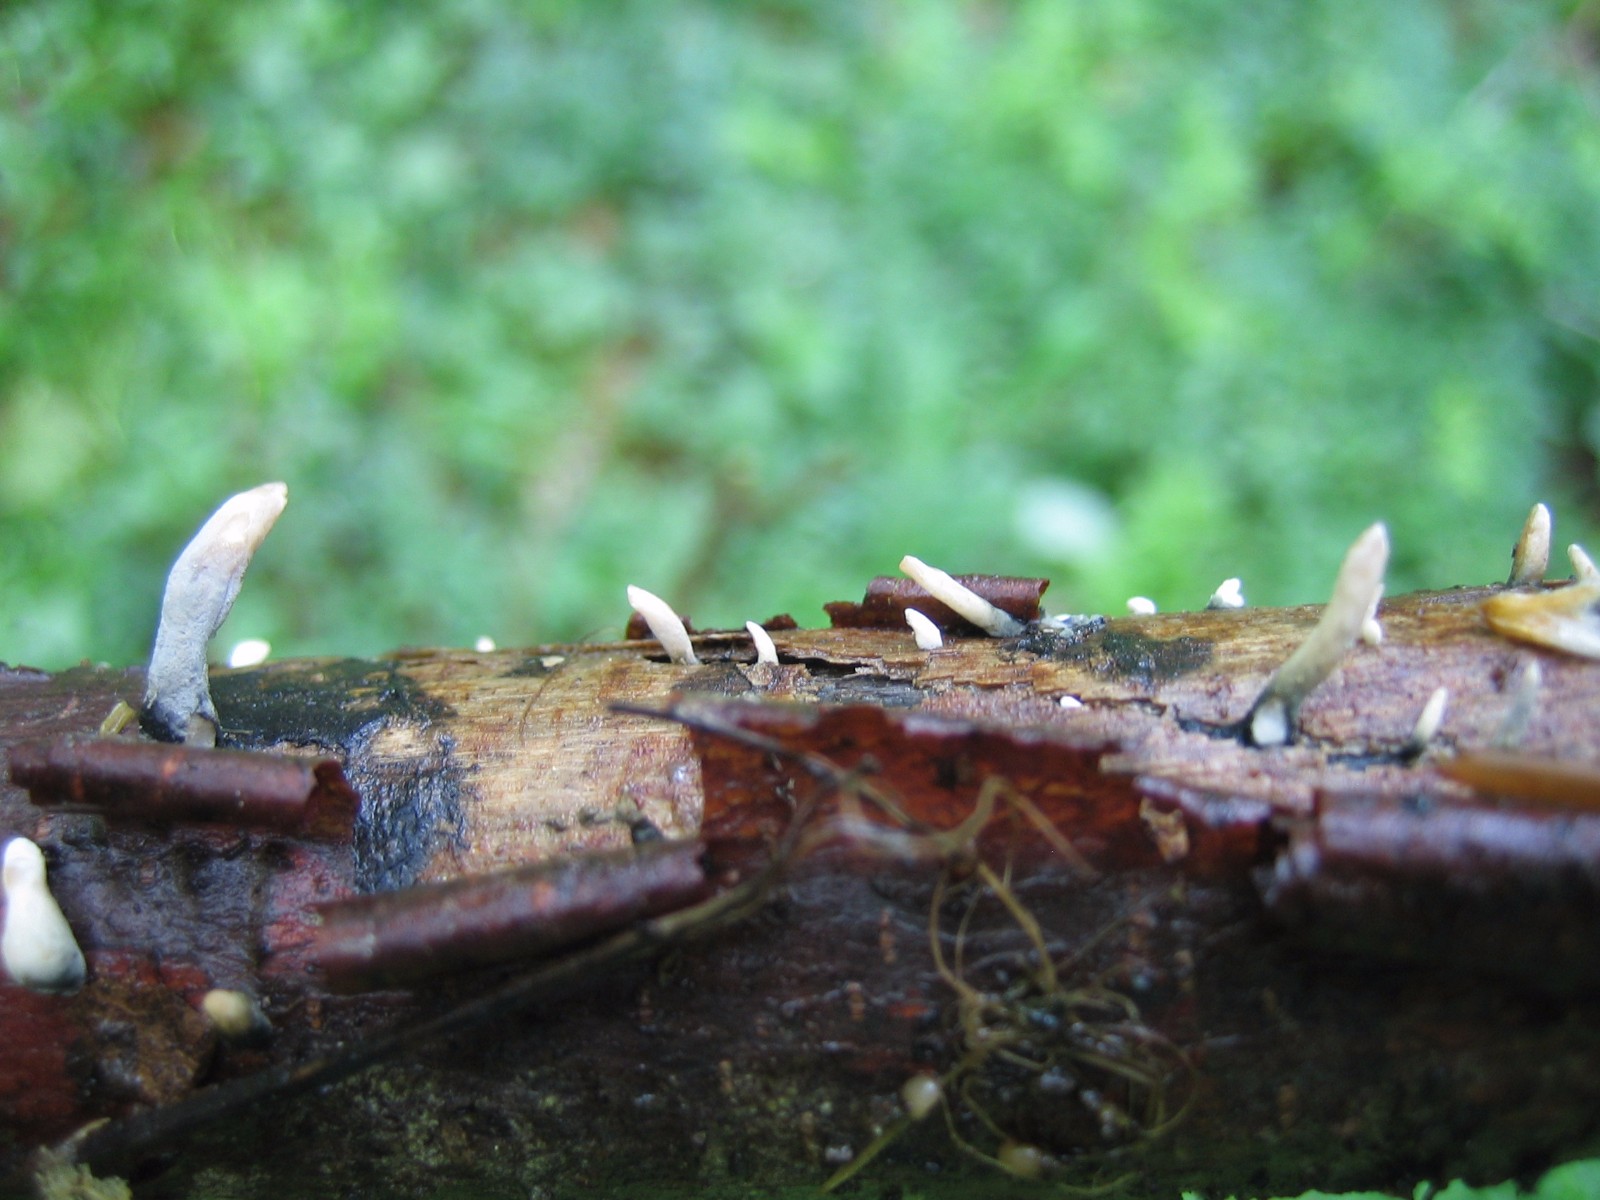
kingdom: Fungi
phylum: Ascomycota
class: Sordariomycetes
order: Xylariales
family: Xylariaceae
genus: Xylaria
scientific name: Xylaria longipes
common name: slank stødsvamp
